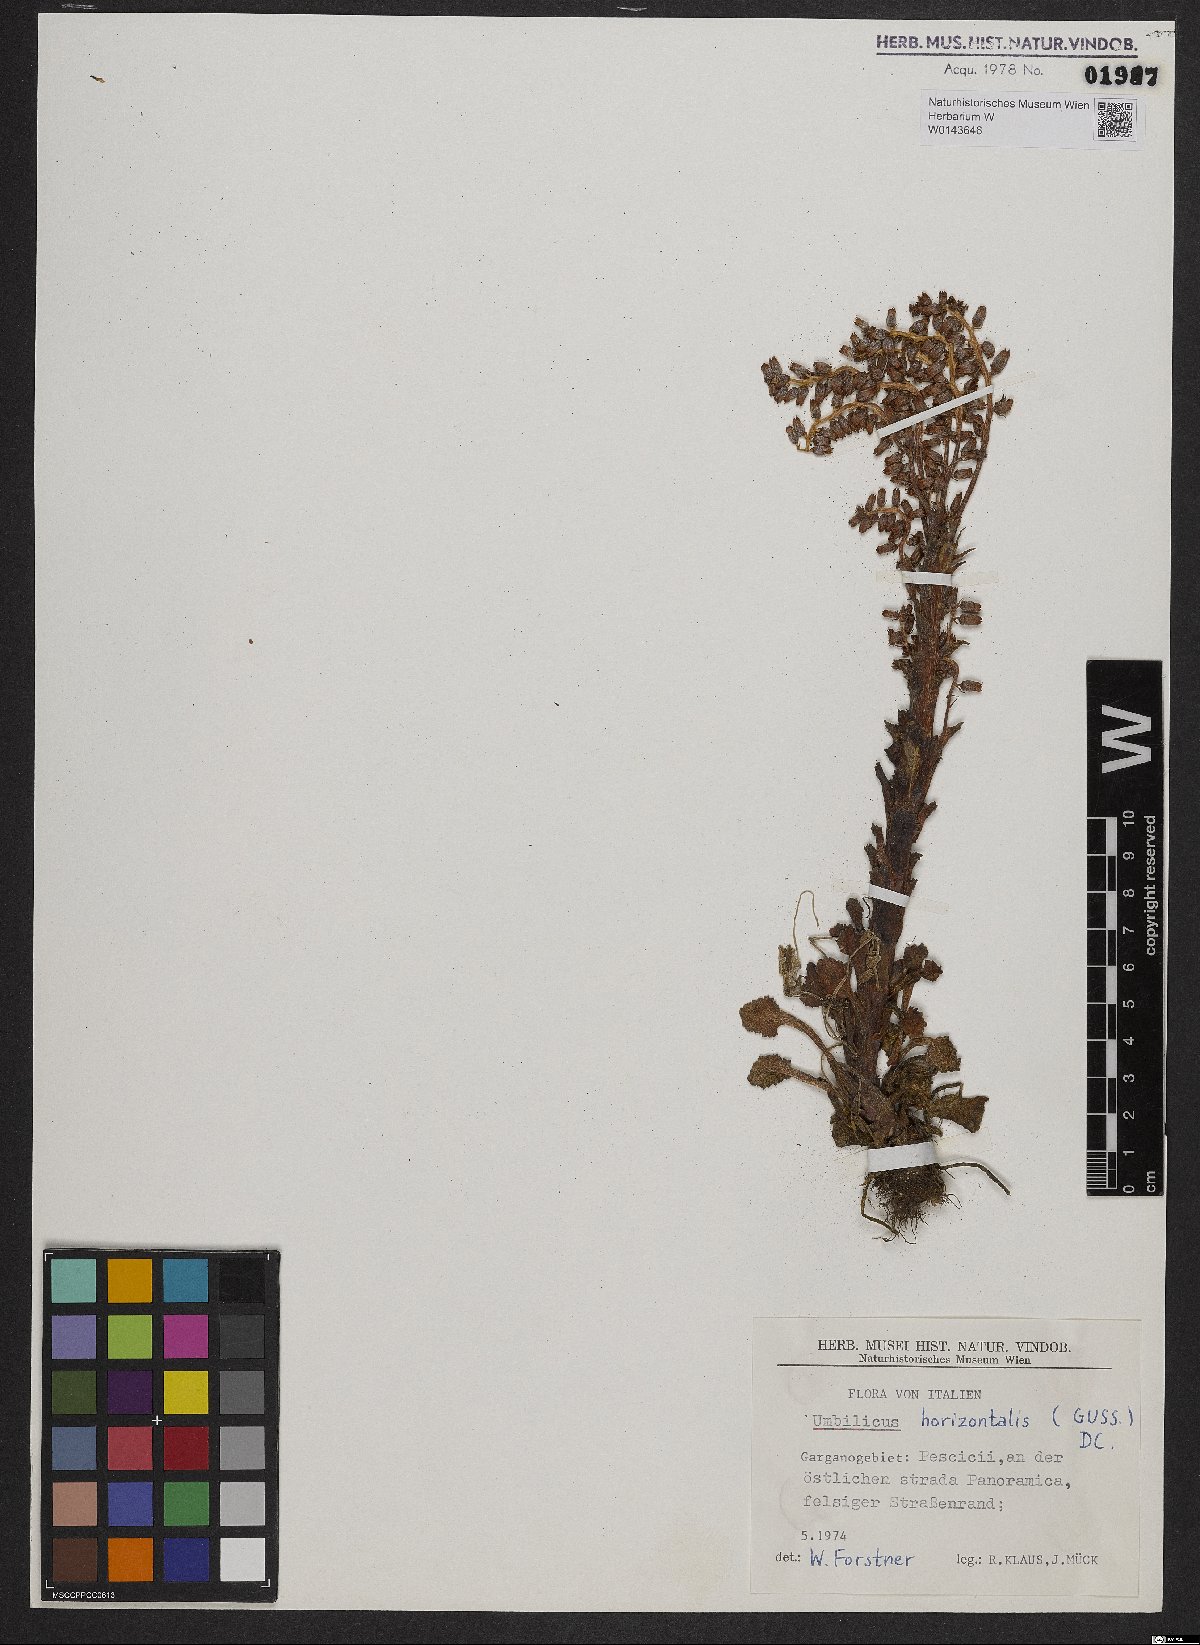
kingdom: Plantae
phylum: Tracheophyta
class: Magnoliopsida
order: Saxifragales
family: Crassulaceae
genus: Umbilicus
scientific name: Umbilicus horizontalis
